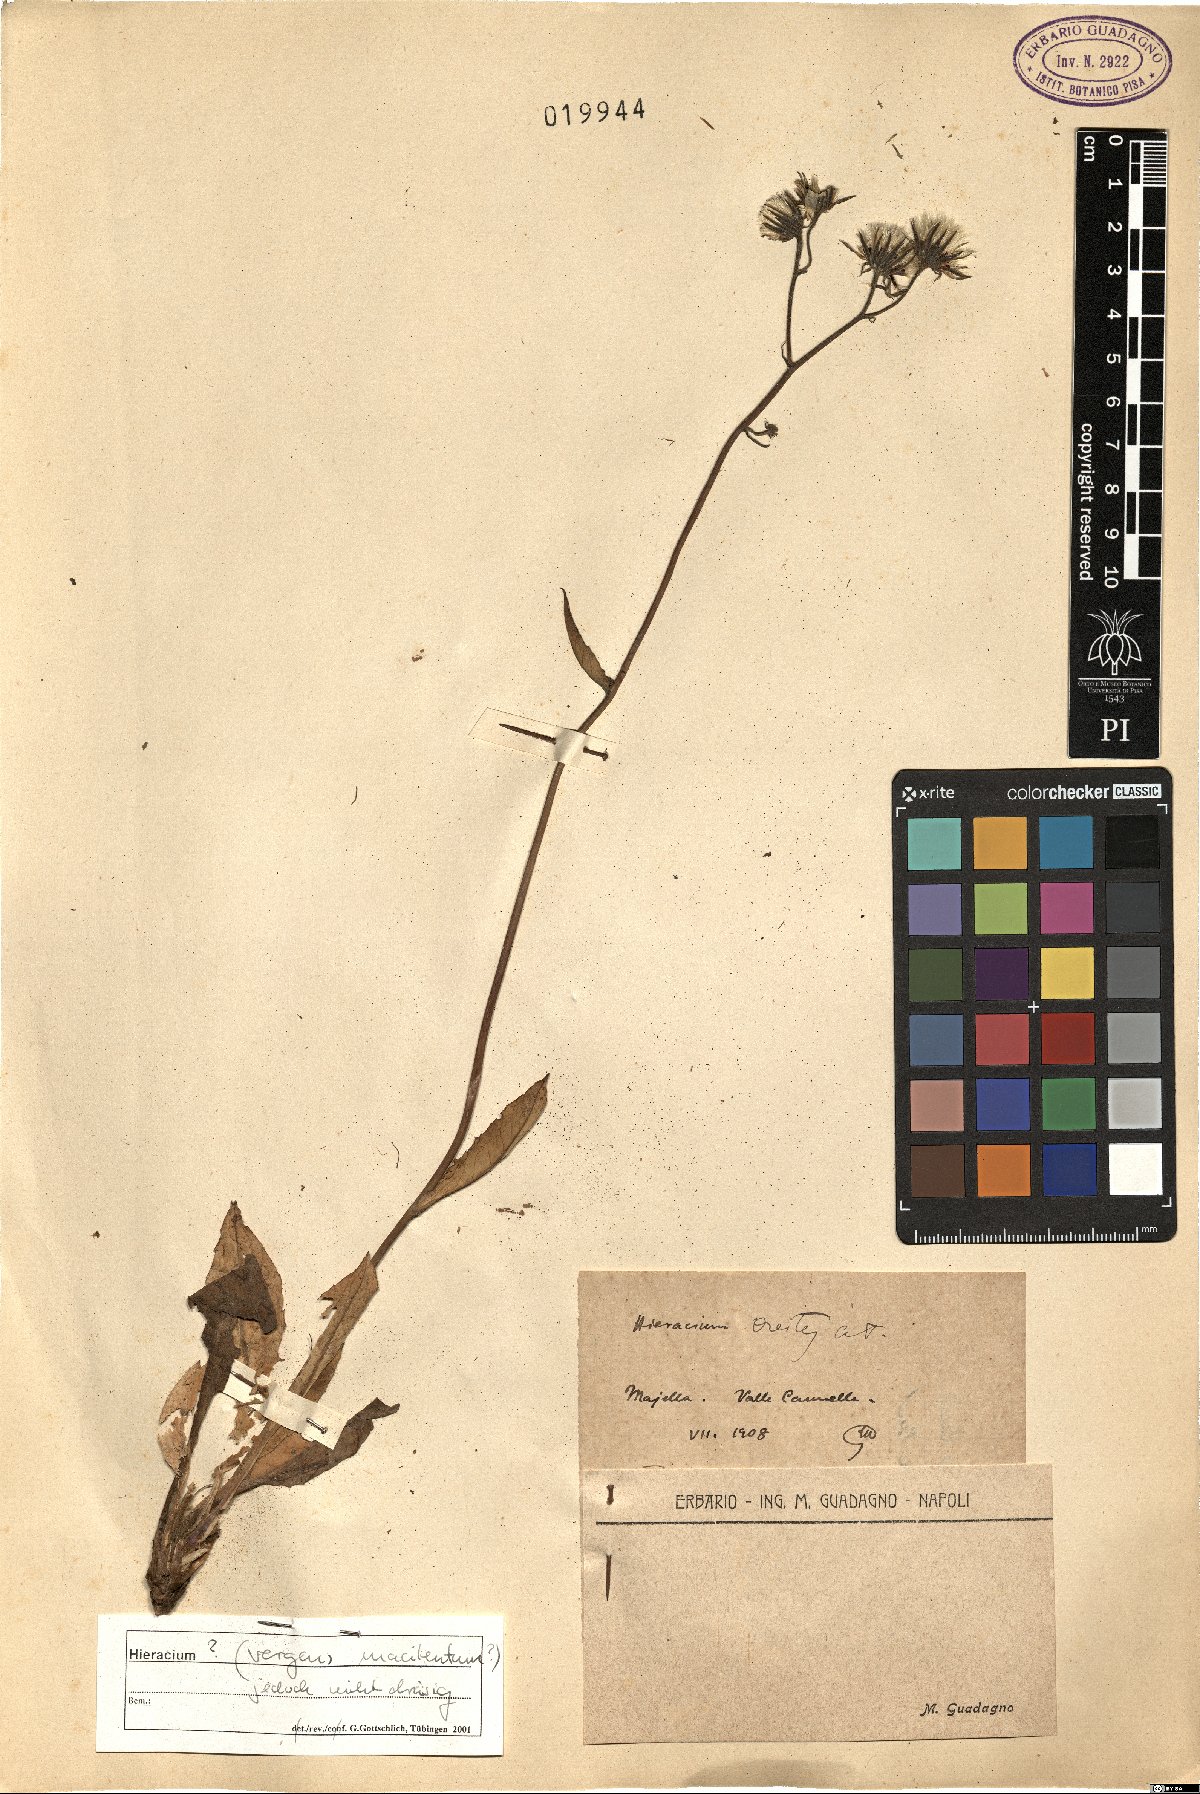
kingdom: Plantae
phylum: Tracheophyta
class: Magnoliopsida
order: Asterales
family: Asteraceae
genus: Hieracium
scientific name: Hieracium froelichianum
